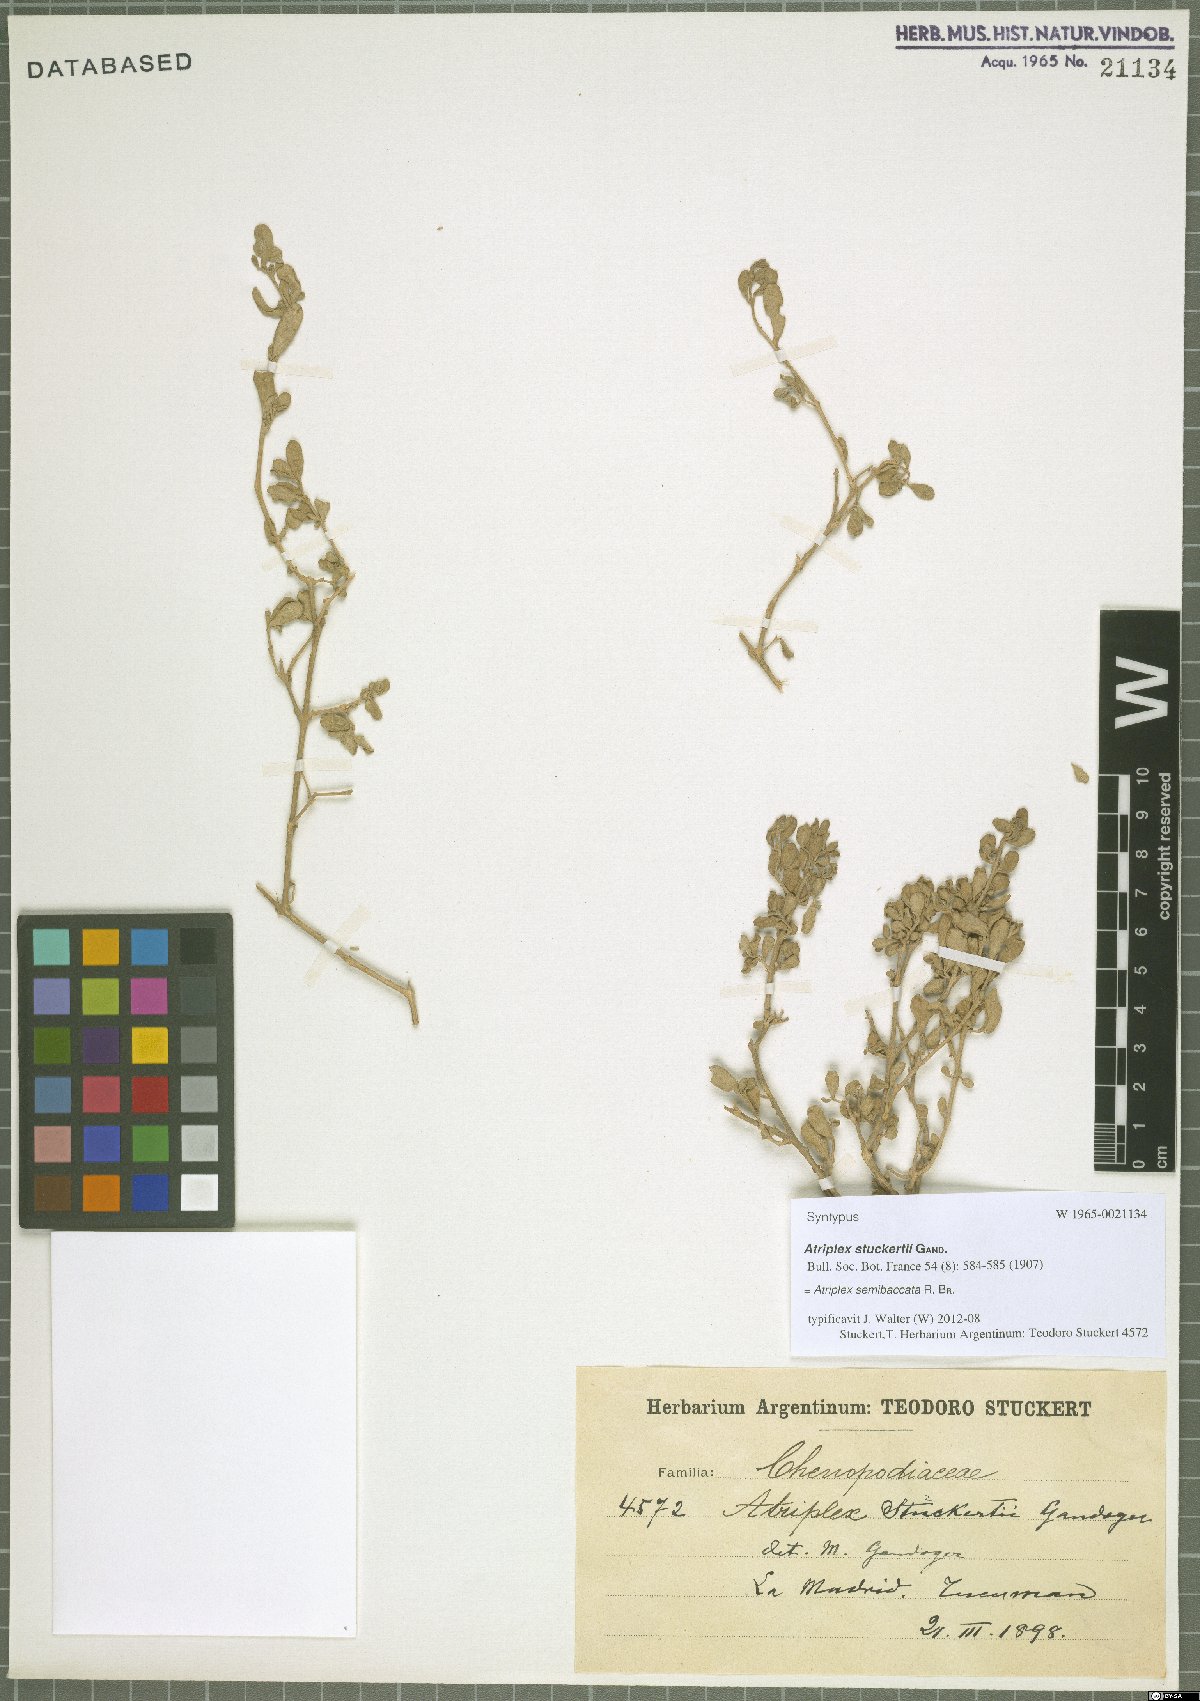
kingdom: Plantae
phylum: Tracheophyta
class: Magnoliopsida
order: Caryophyllales
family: Amaranthaceae
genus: Atriplex
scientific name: Atriplex semibaccata
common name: Australian saltbush
